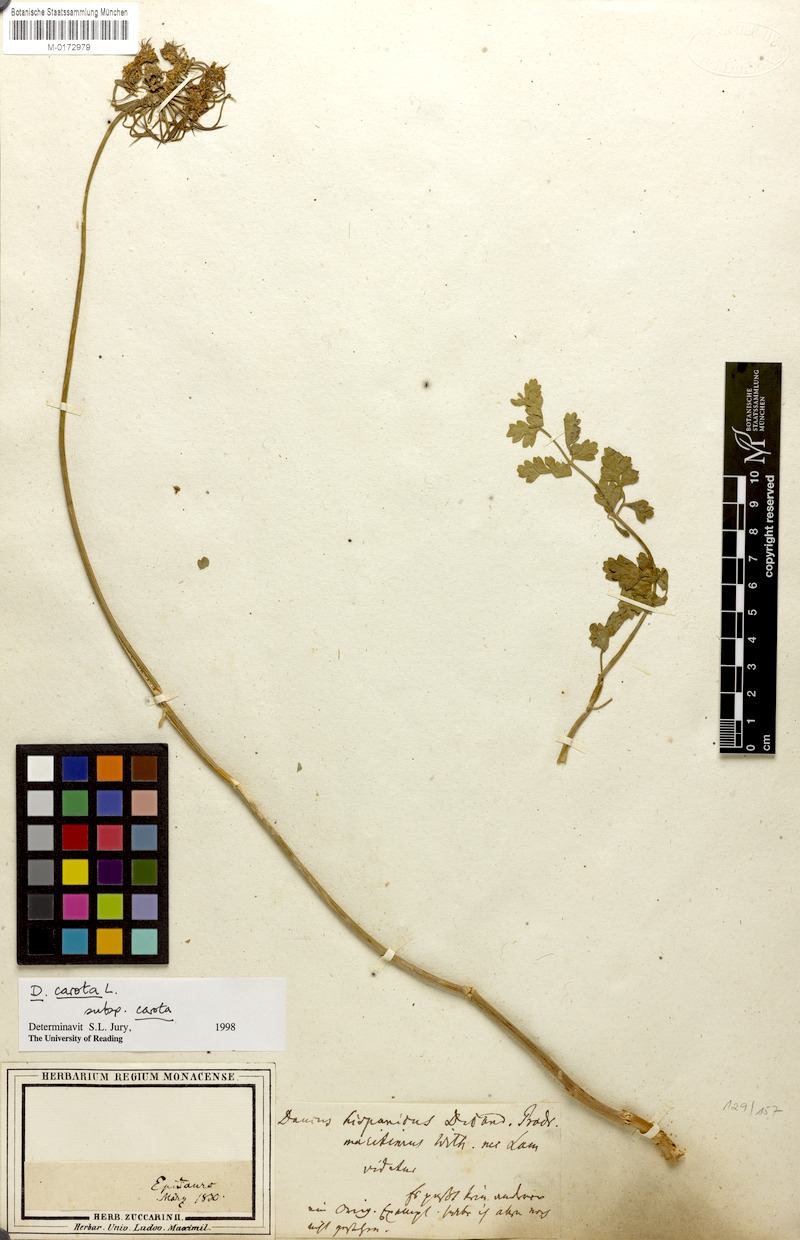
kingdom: Plantae
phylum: Tracheophyta
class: Magnoliopsida
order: Apiales
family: Apiaceae
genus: Daucus
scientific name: Daucus carota
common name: Wild carrot
